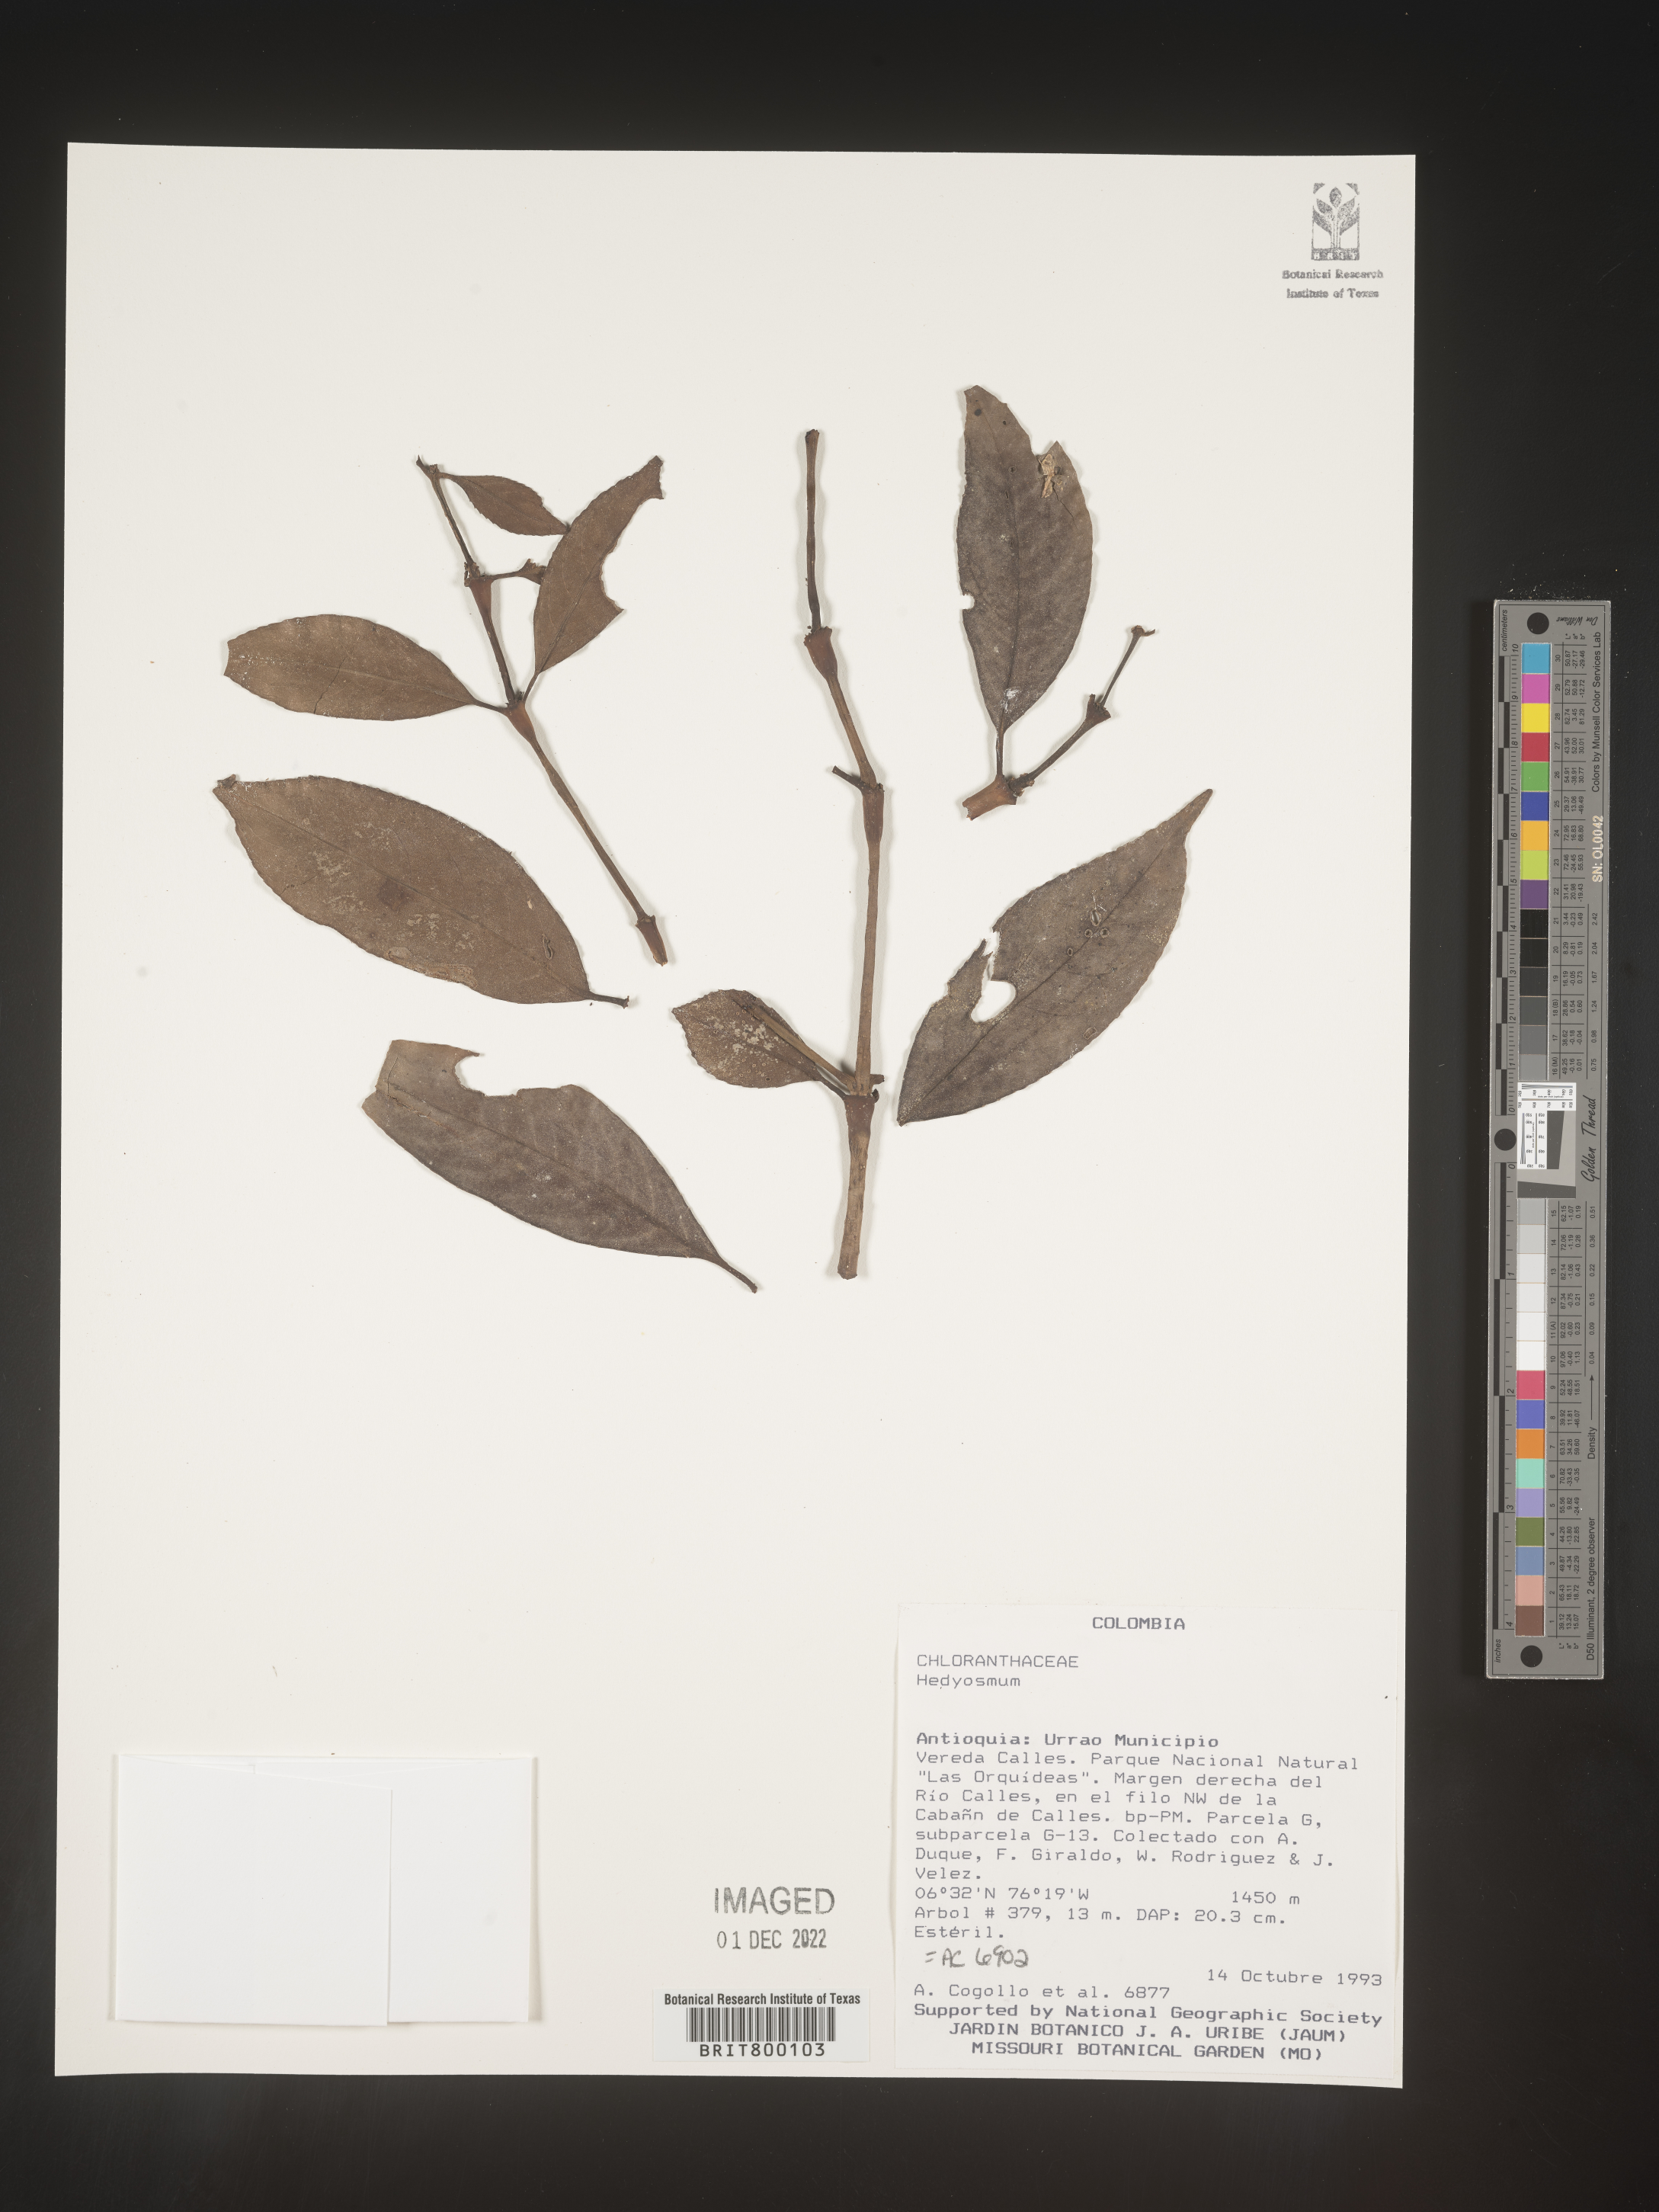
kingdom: Plantae
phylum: Tracheophyta
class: Magnoliopsida
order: Chloranthales
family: Chloranthaceae
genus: Hedyosmum
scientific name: Hedyosmum
